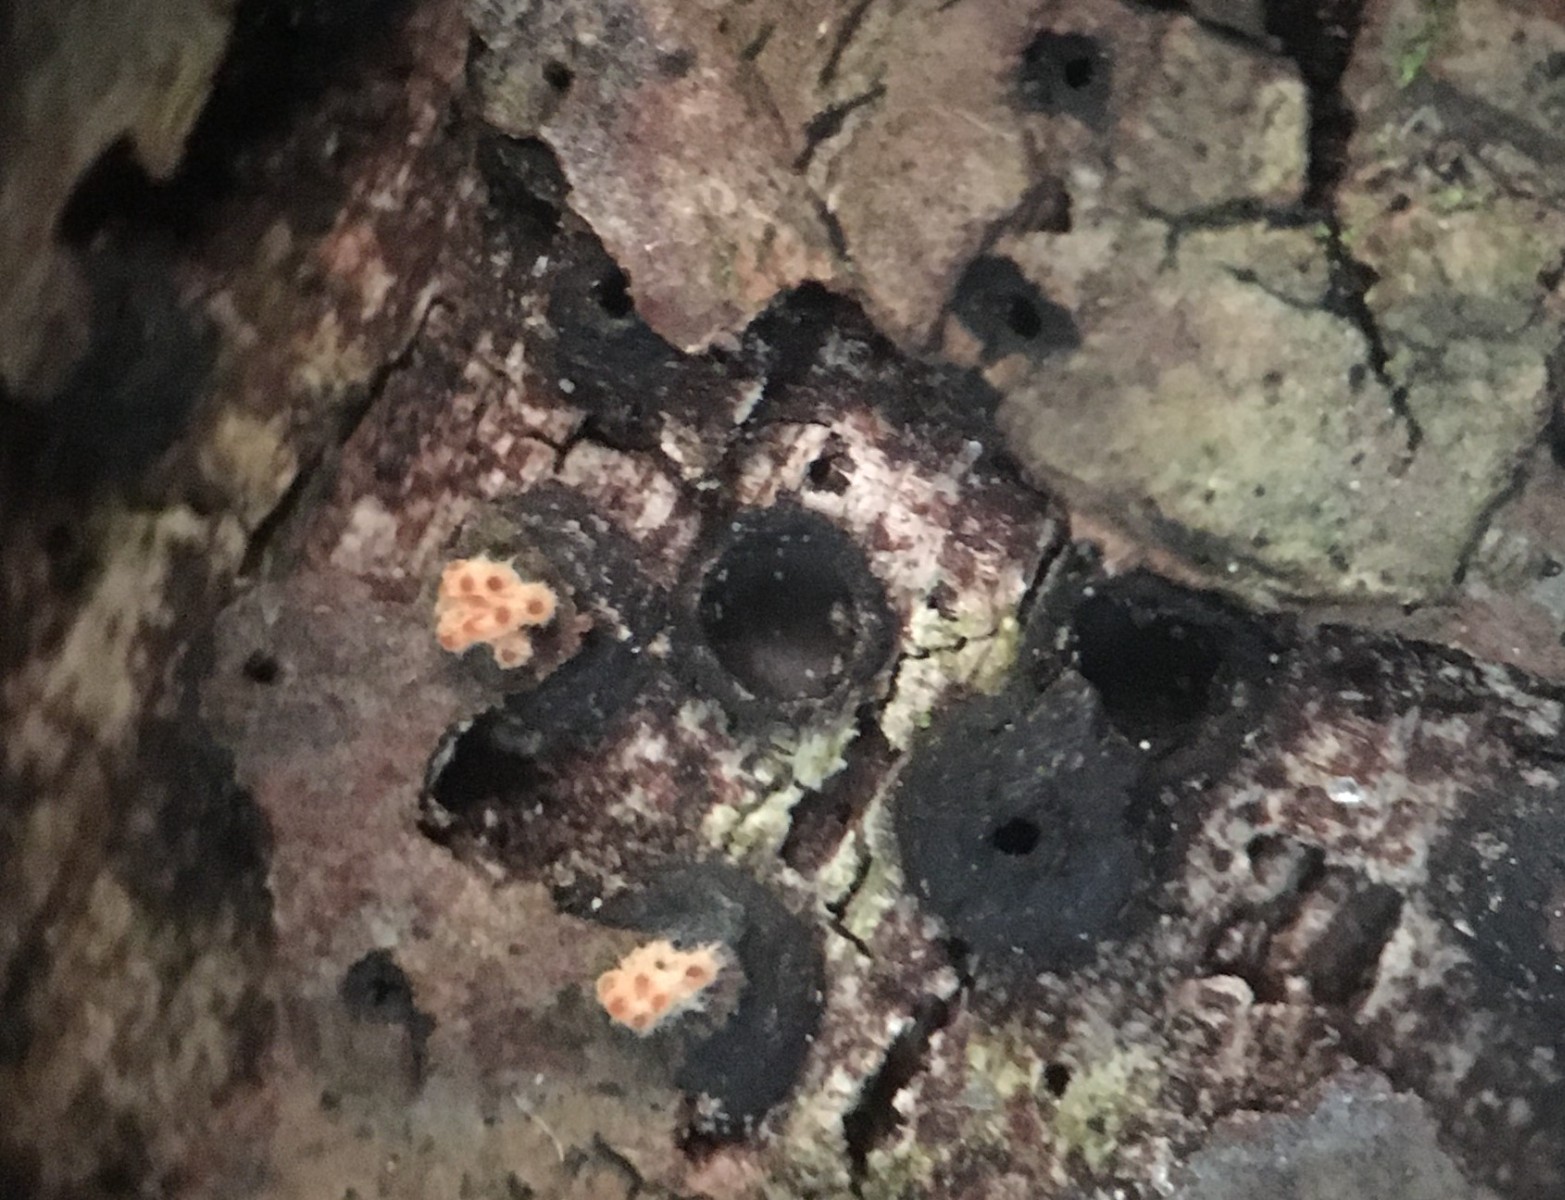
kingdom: Fungi
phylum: Ascomycota
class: Dothideomycetes
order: Pleosporales
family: Massariaceae
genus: Massaria
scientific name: Massaria inquinans
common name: ahorn-kulvulkan
